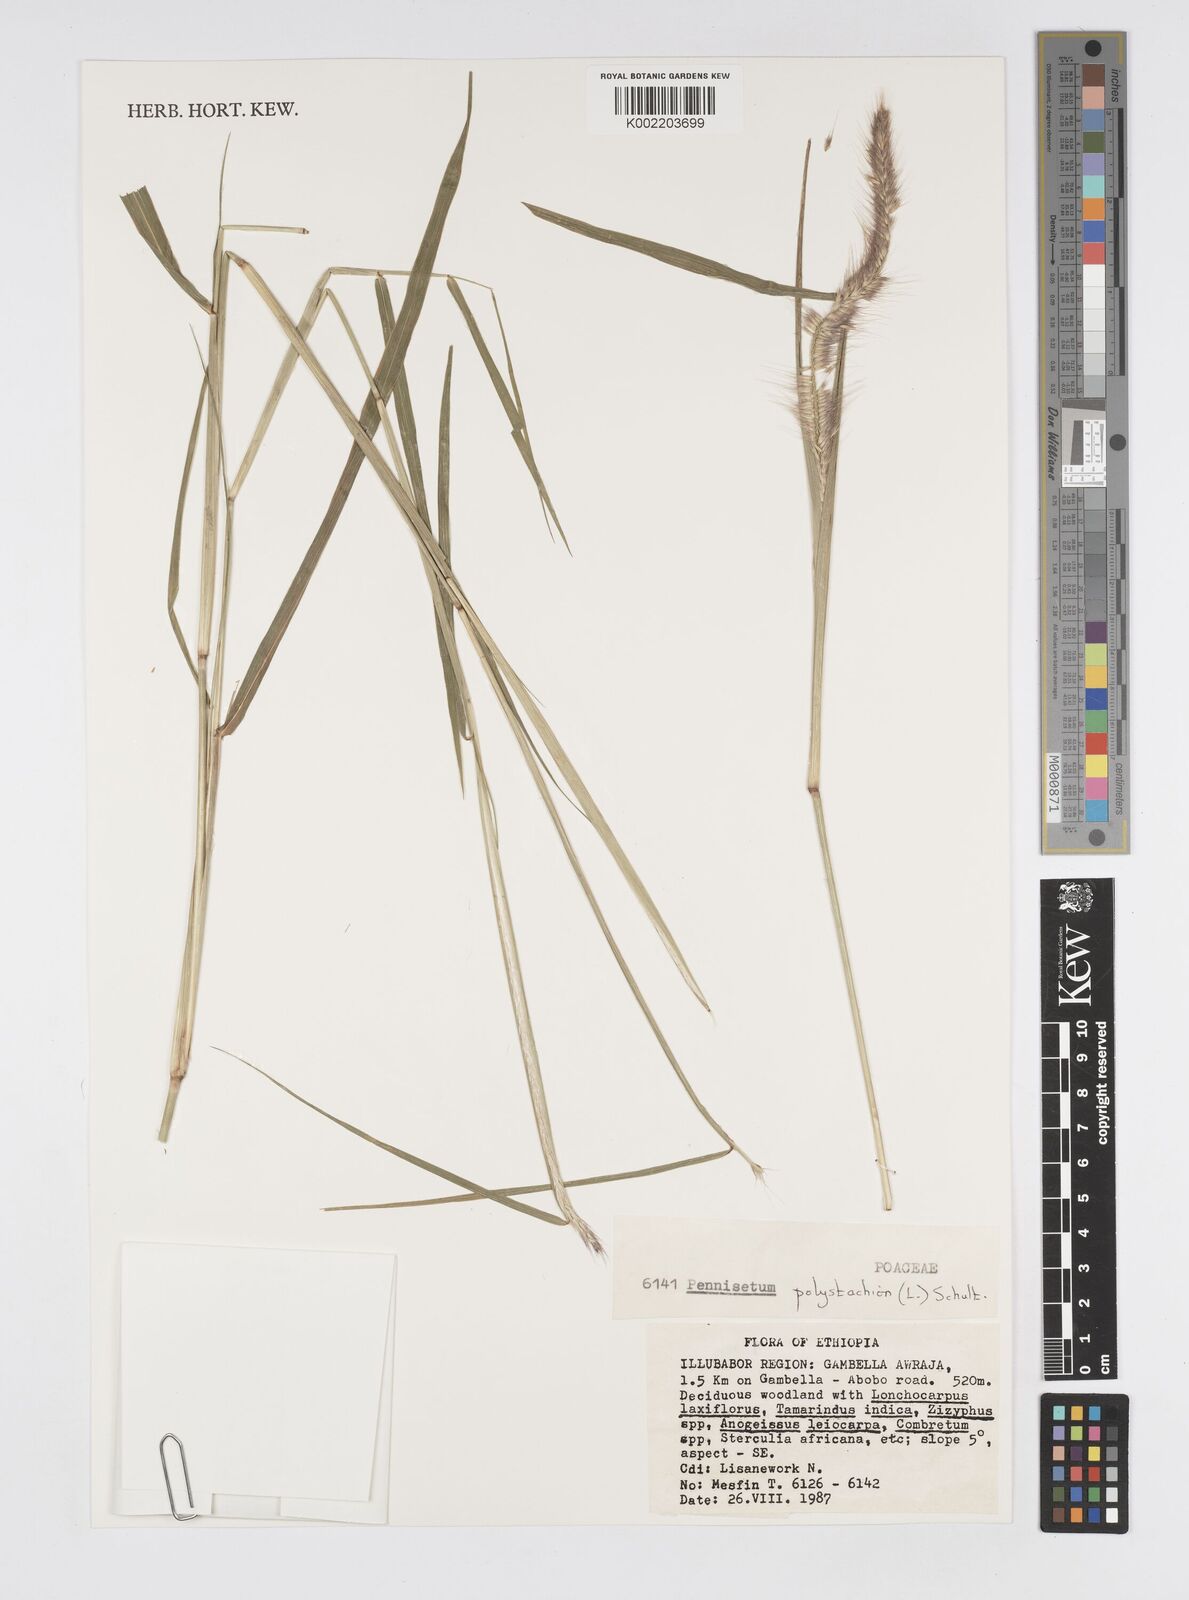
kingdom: Plantae
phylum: Tracheophyta
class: Liliopsida
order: Poales
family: Poaceae
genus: Setaria
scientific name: Setaria parviflora
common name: Knotroot bristle-grass
